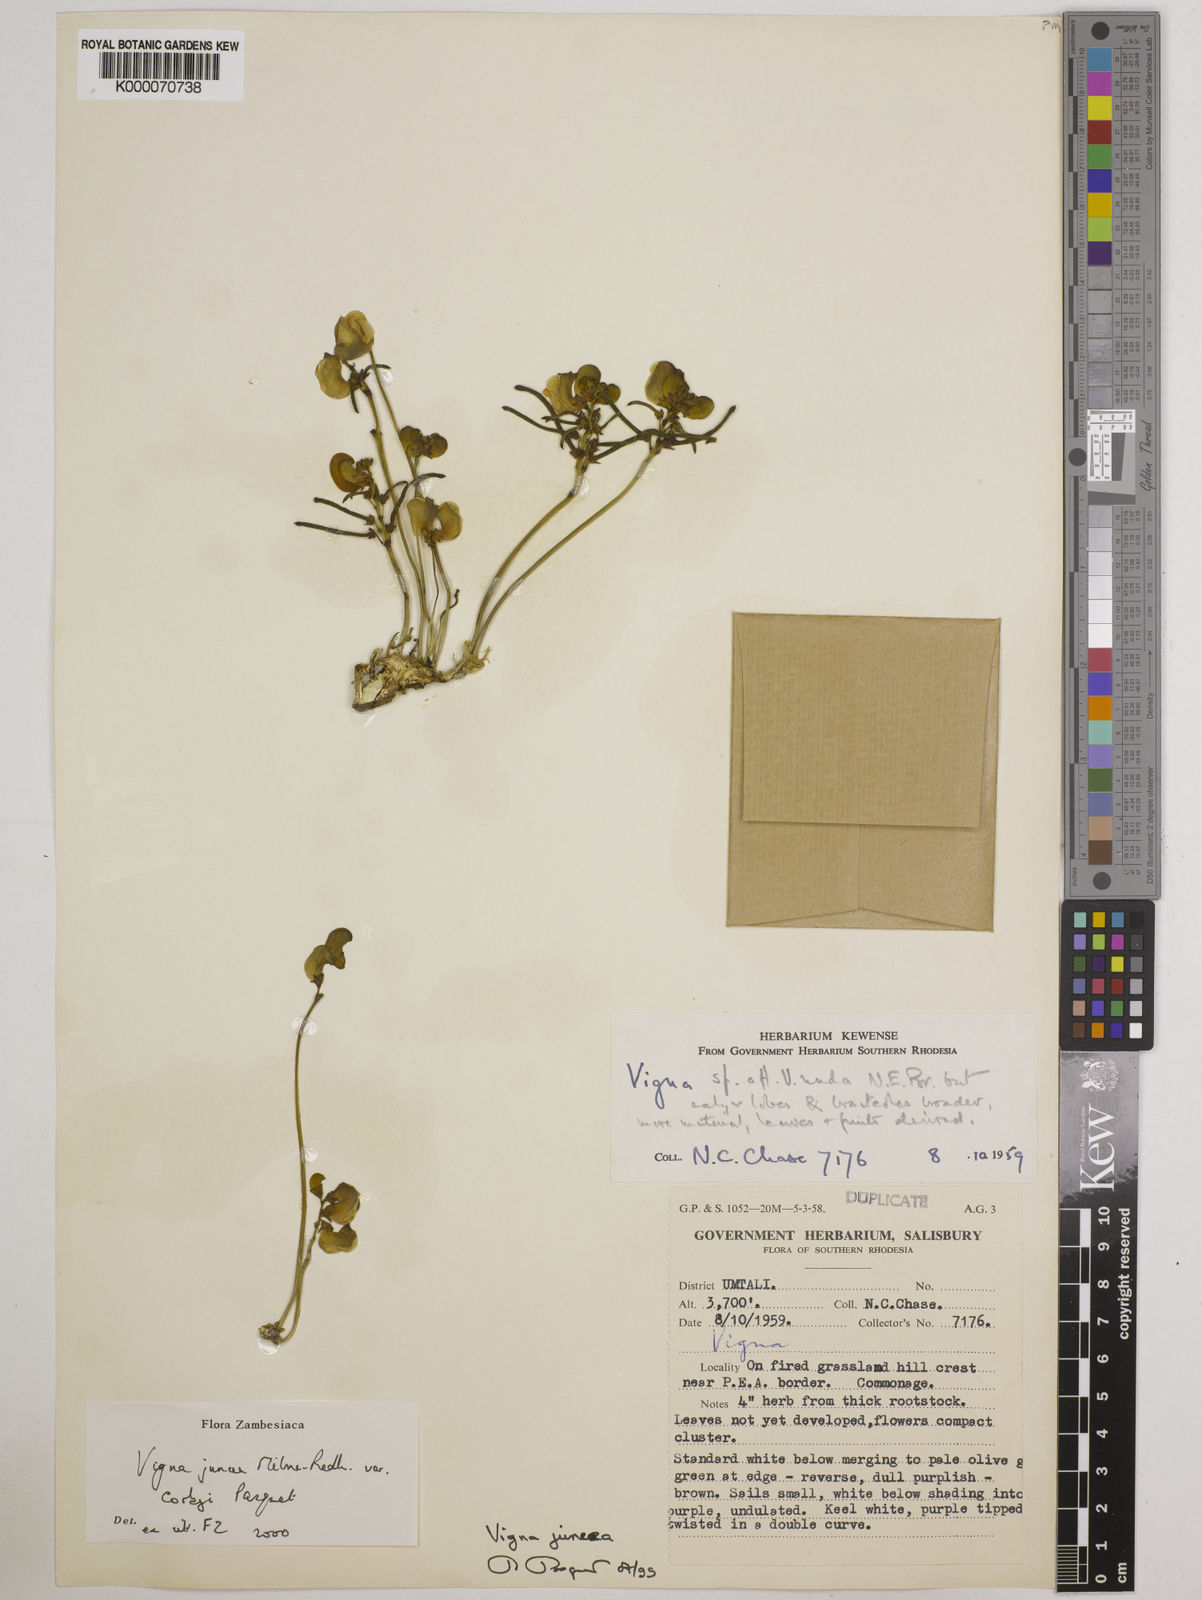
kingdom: Plantae
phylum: Tracheophyta
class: Magnoliopsida
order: Fabales
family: Fabaceae
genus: Vigna
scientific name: Vigna juncea
